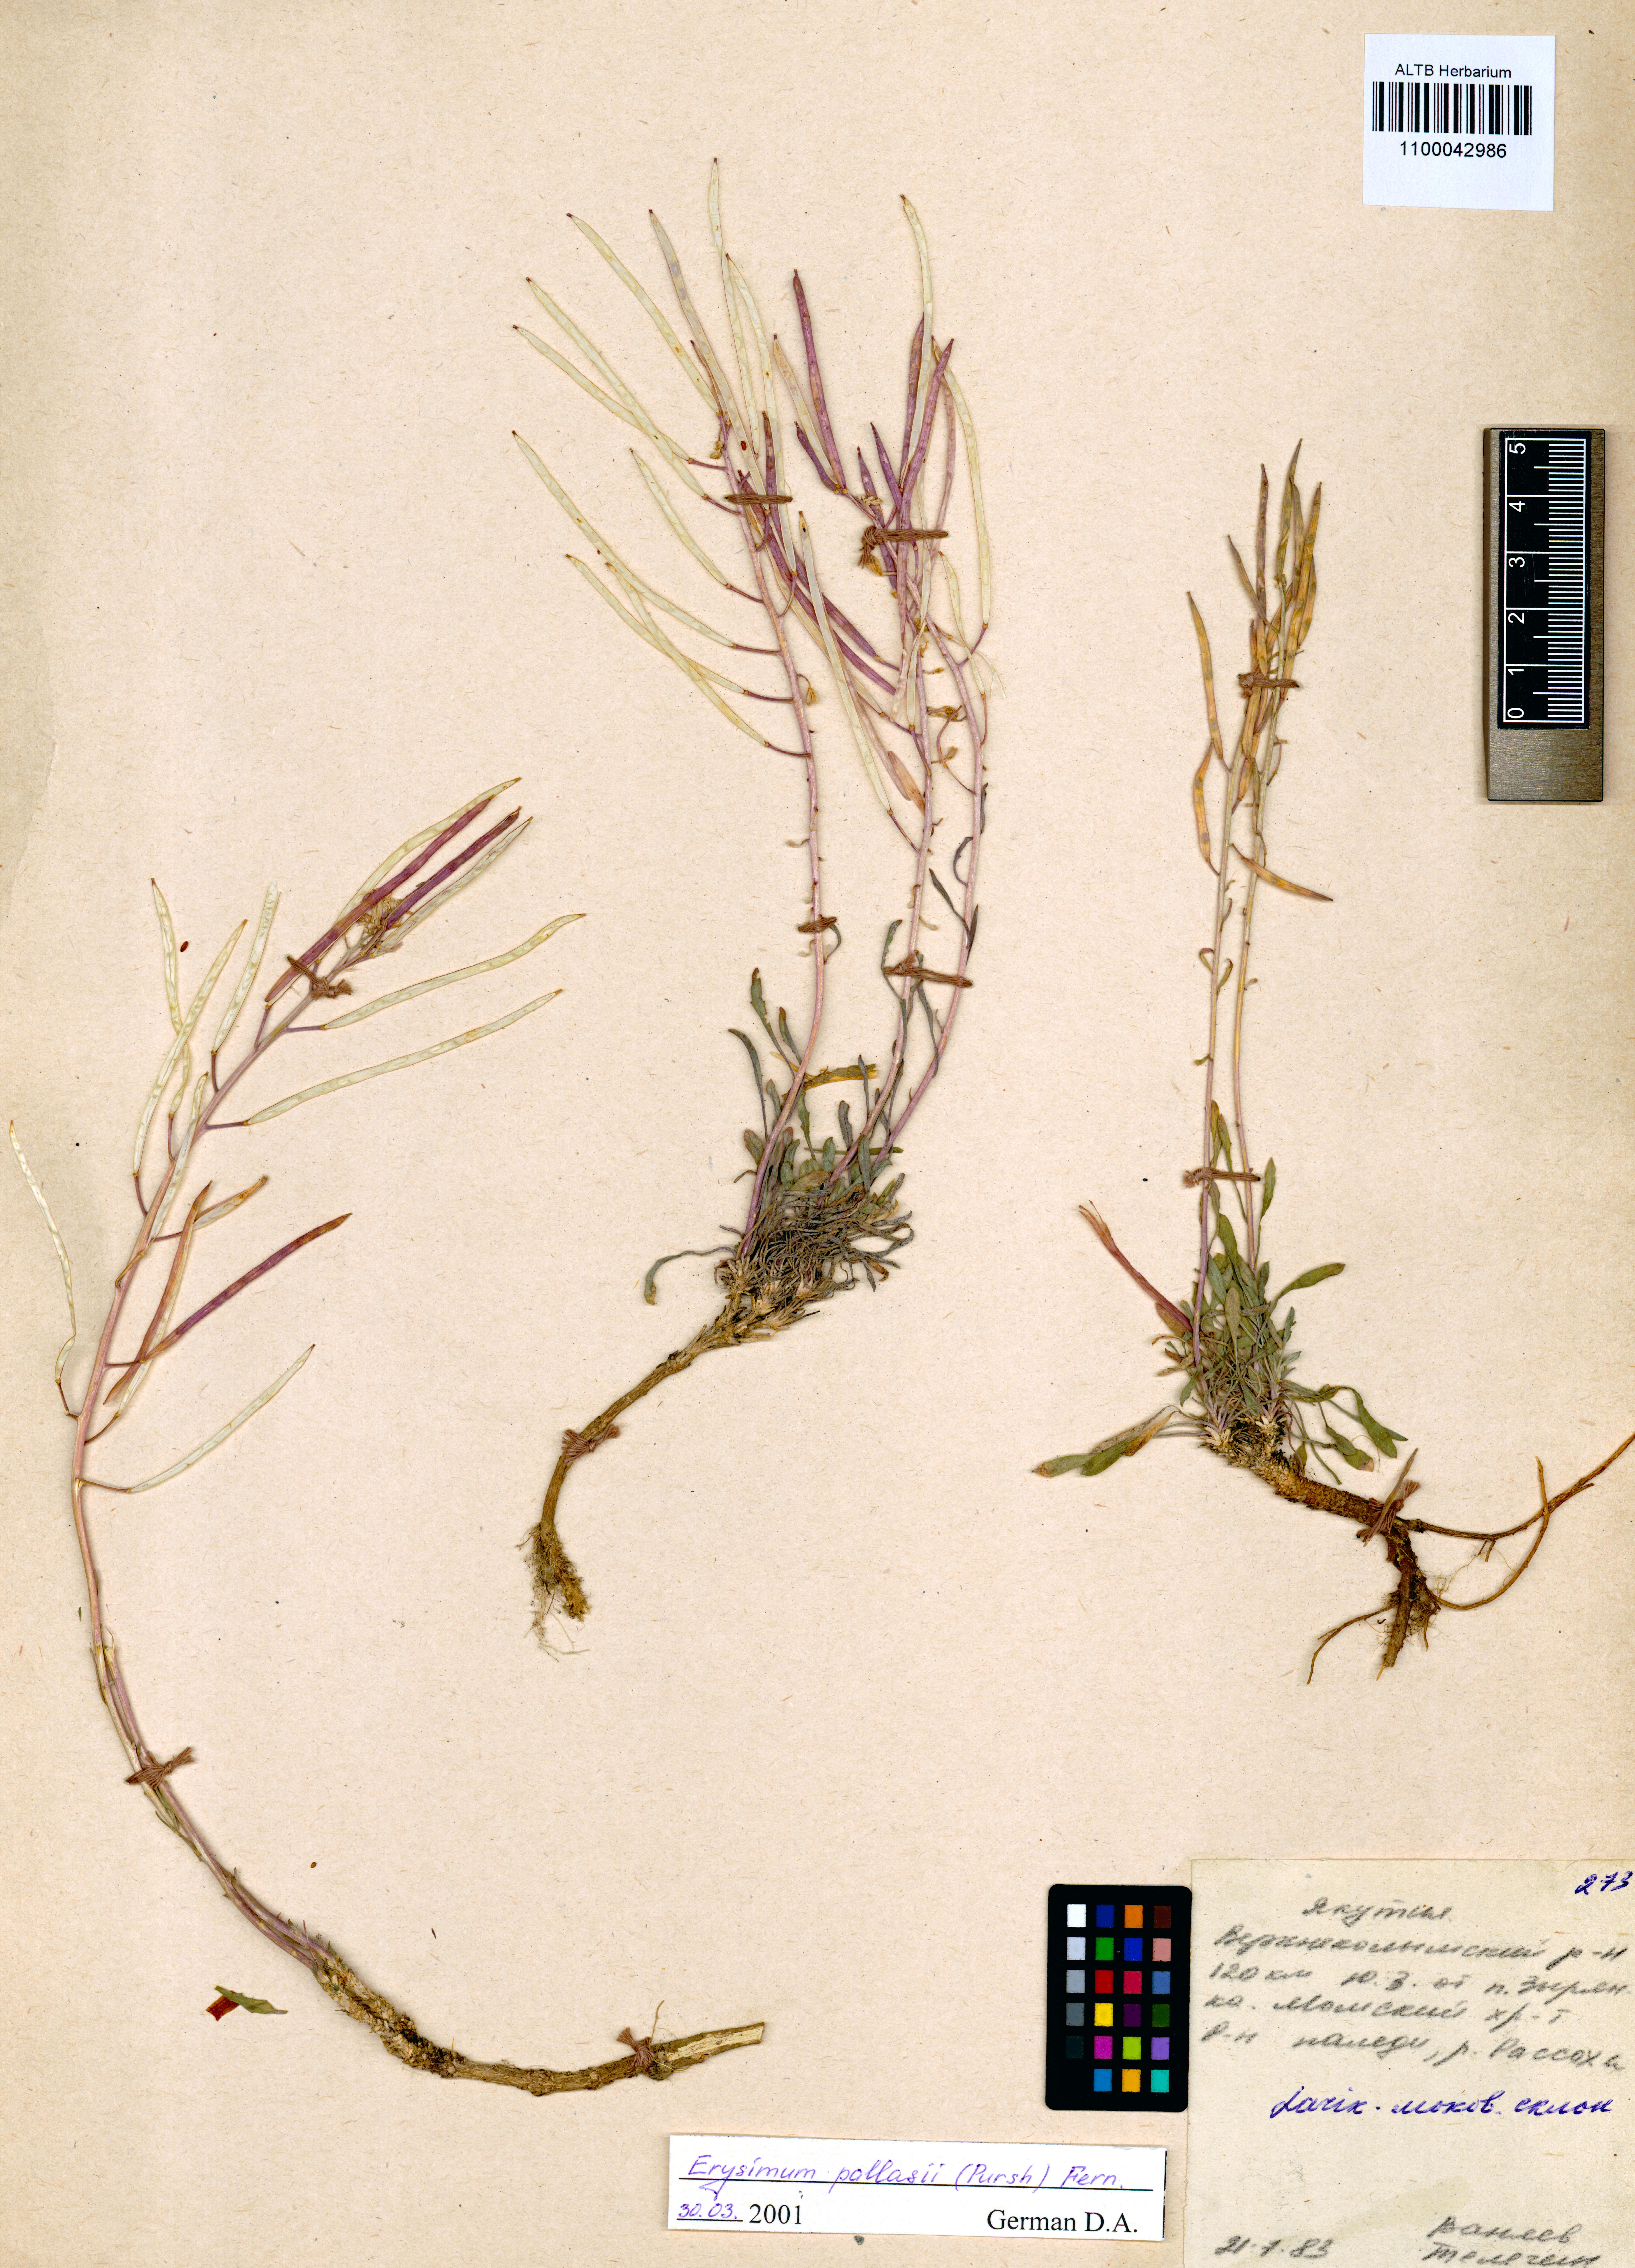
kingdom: Plantae
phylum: Tracheophyta
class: Magnoliopsida
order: Brassicales
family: Brassicaceae
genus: Erysimum
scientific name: Erysimum pallasii
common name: Pallas' wallflower
